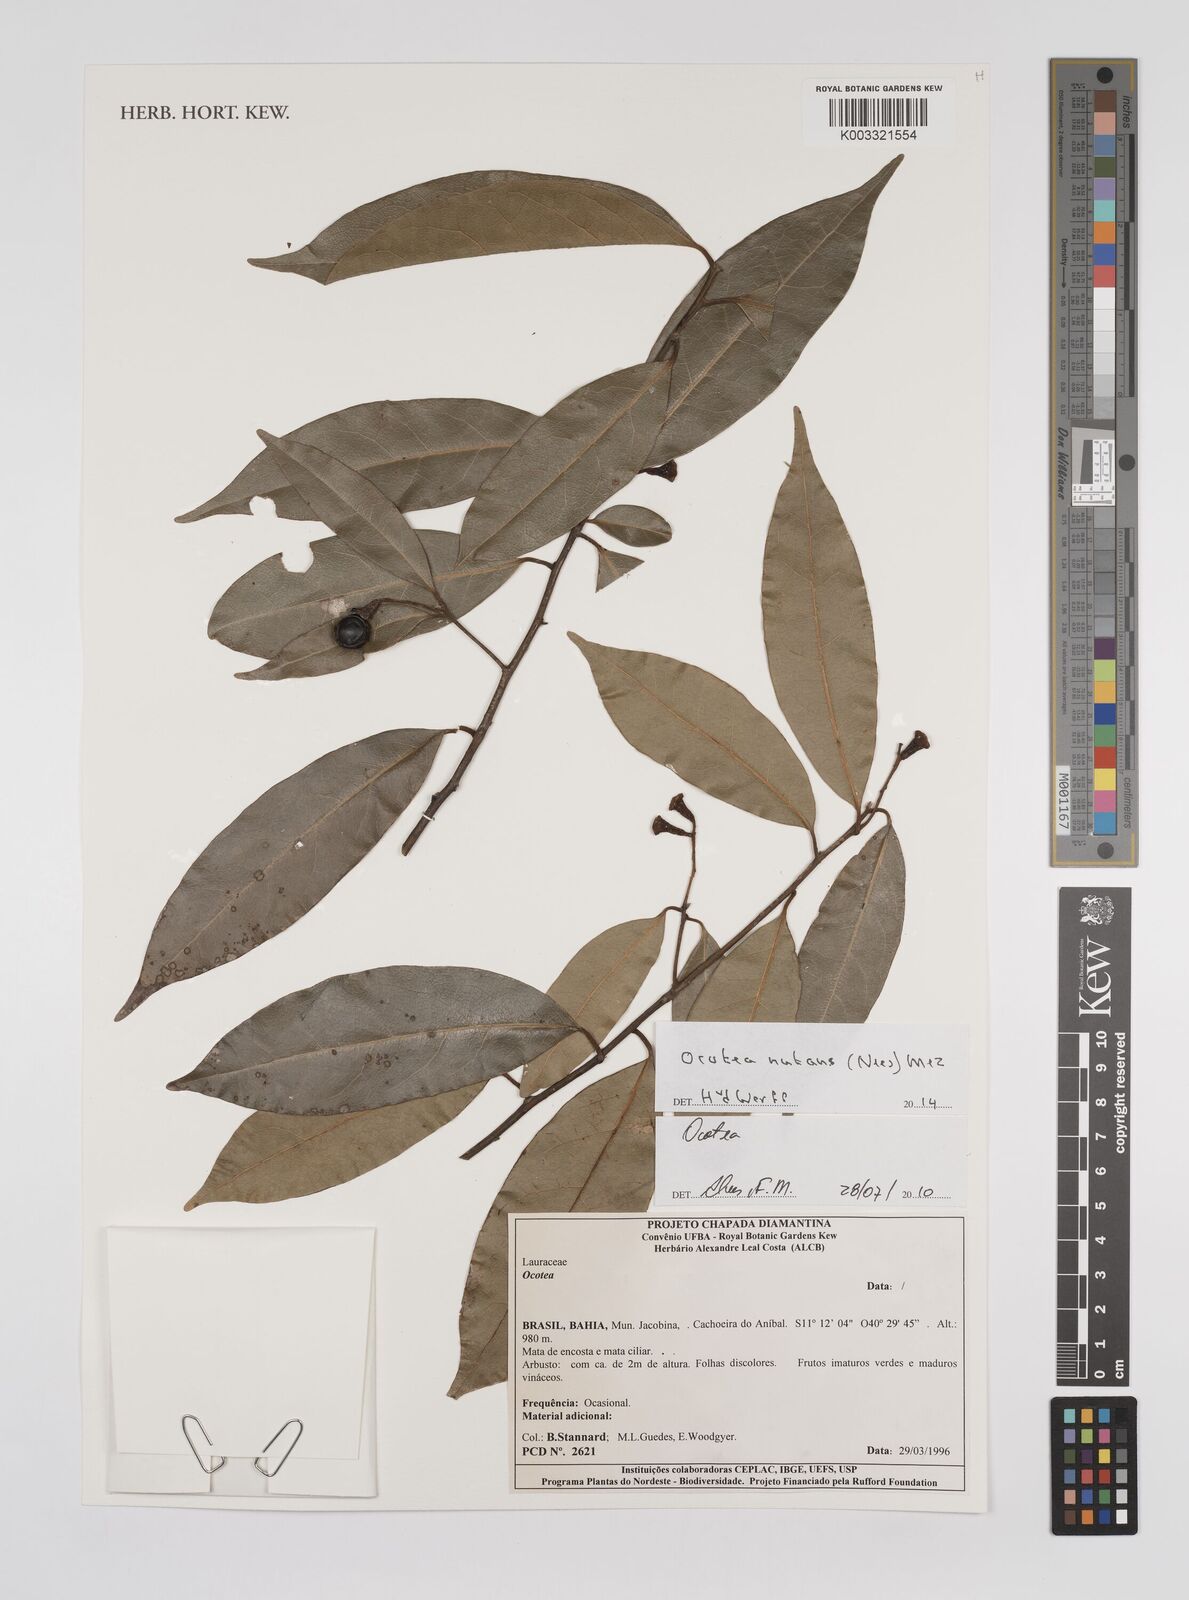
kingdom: Plantae
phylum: Tracheophyta
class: Magnoliopsida
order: Laurales
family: Lauraceae
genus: Mespilodaphne
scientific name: Mespilodaphne nutans
